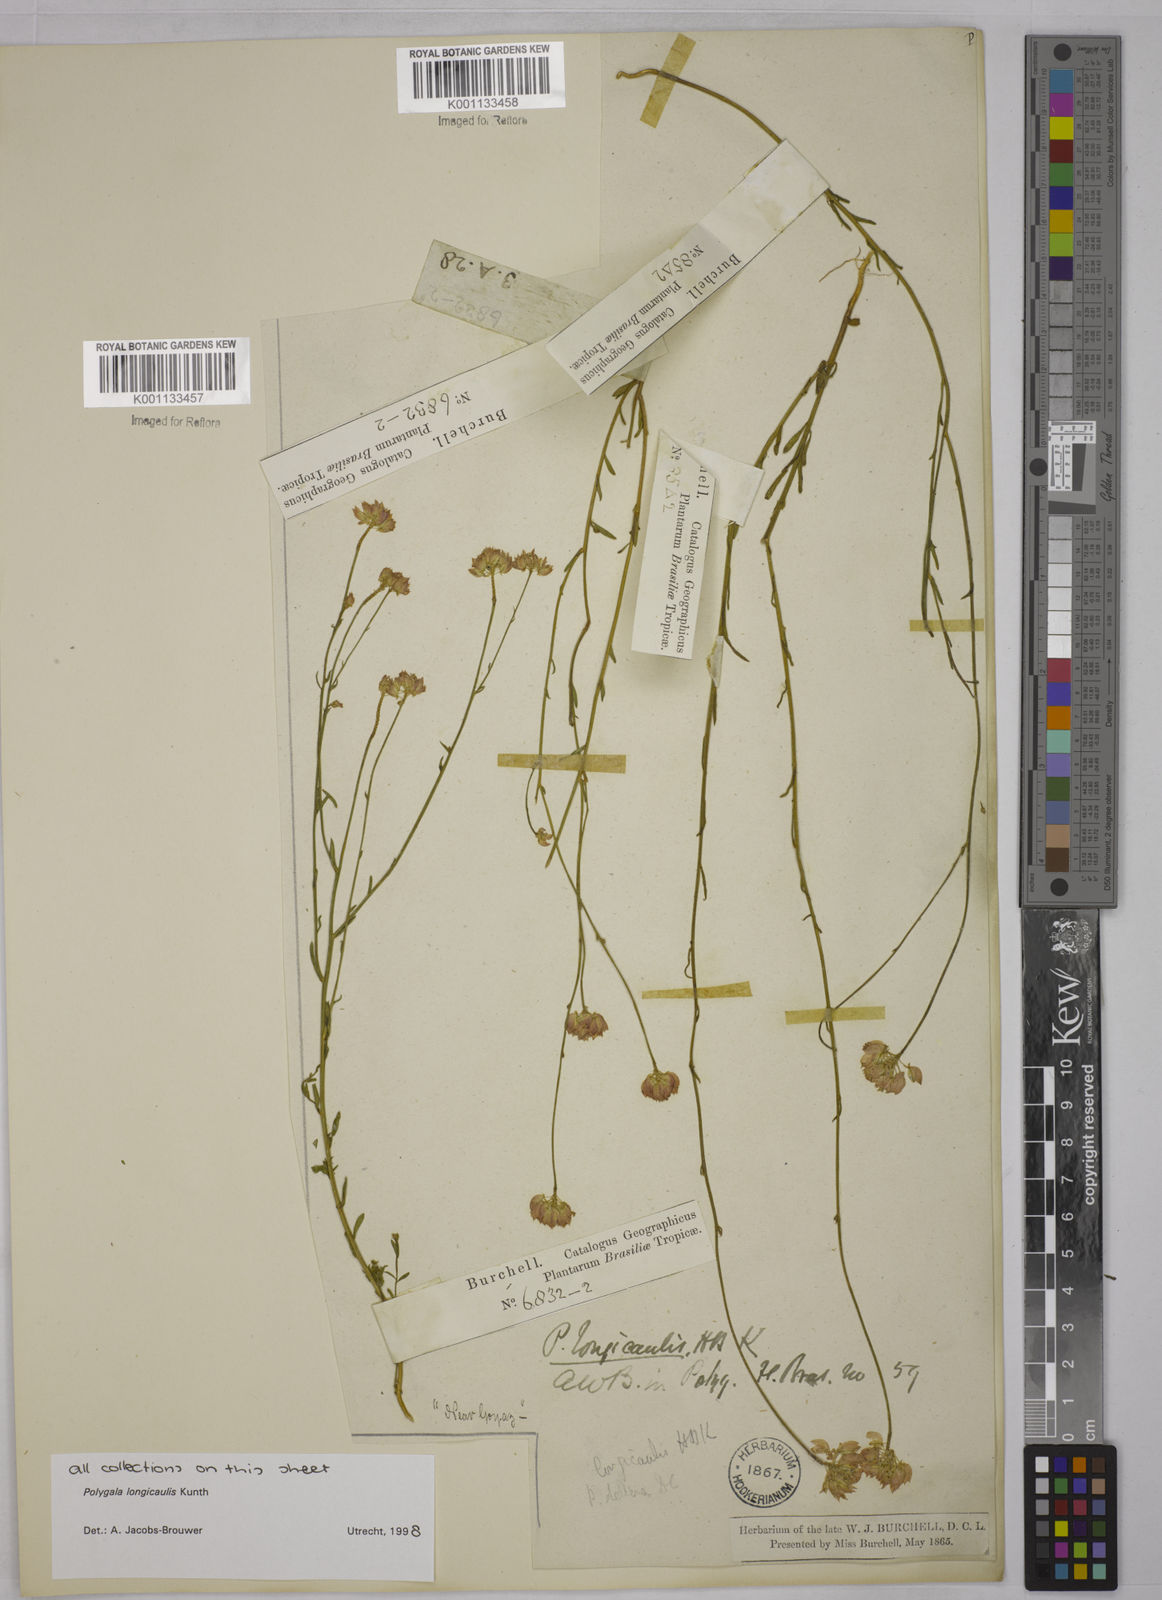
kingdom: Plantae
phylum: Tracheophyta
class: Magnoliopsida
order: Fabales
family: Polygalaceae
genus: Polygala
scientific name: Polygala longicaulis
